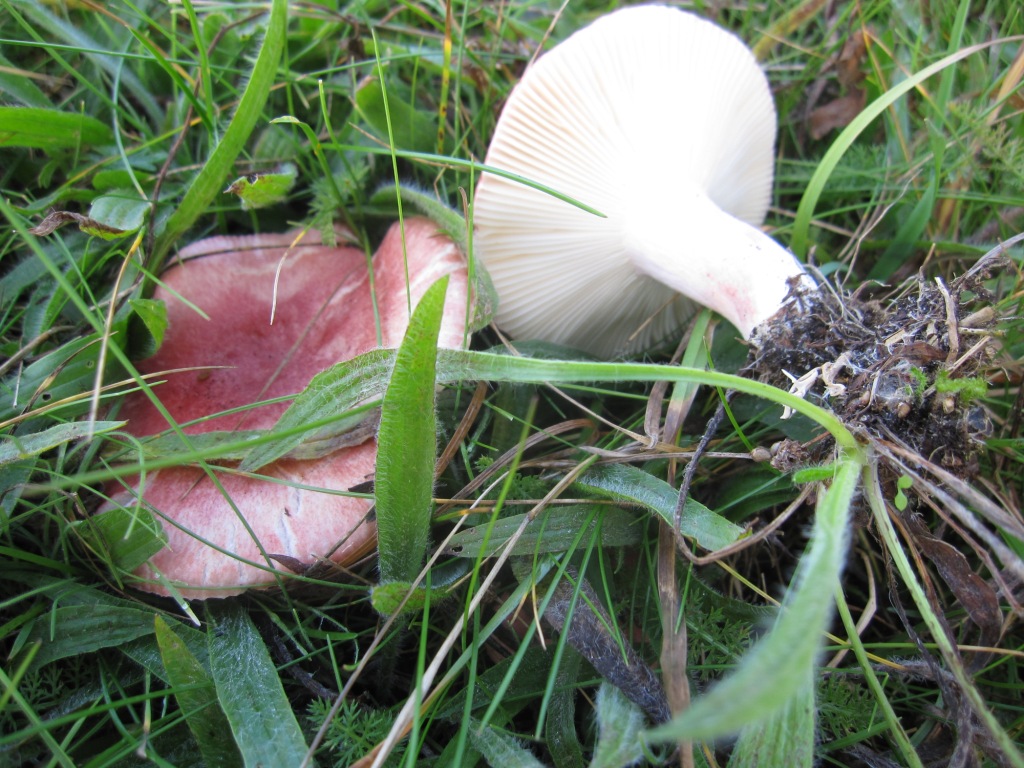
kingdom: Fungi
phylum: Basidiomycota
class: Agaricomycetes
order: Russulales
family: Russulaceae
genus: Russula
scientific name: Russula sanguinea
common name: blodrød skørhat
